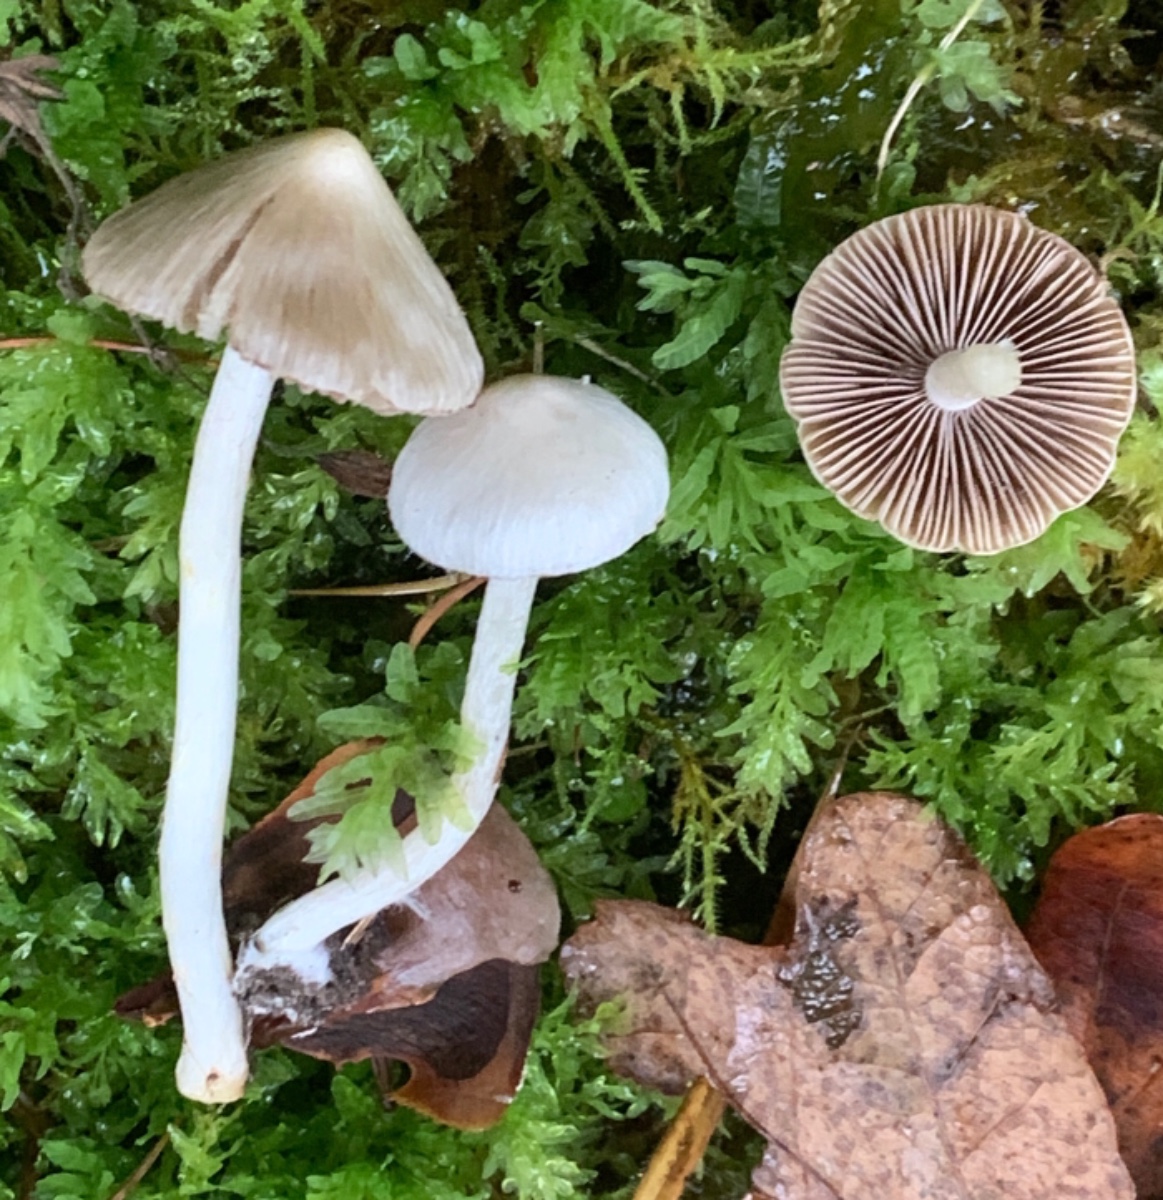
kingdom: Fungi
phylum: Basidiomycota
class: Agaricomycetes
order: Agaricales
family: Inocybaceae
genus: Inocybe
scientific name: Inocybe
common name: almindelig trævlhat
